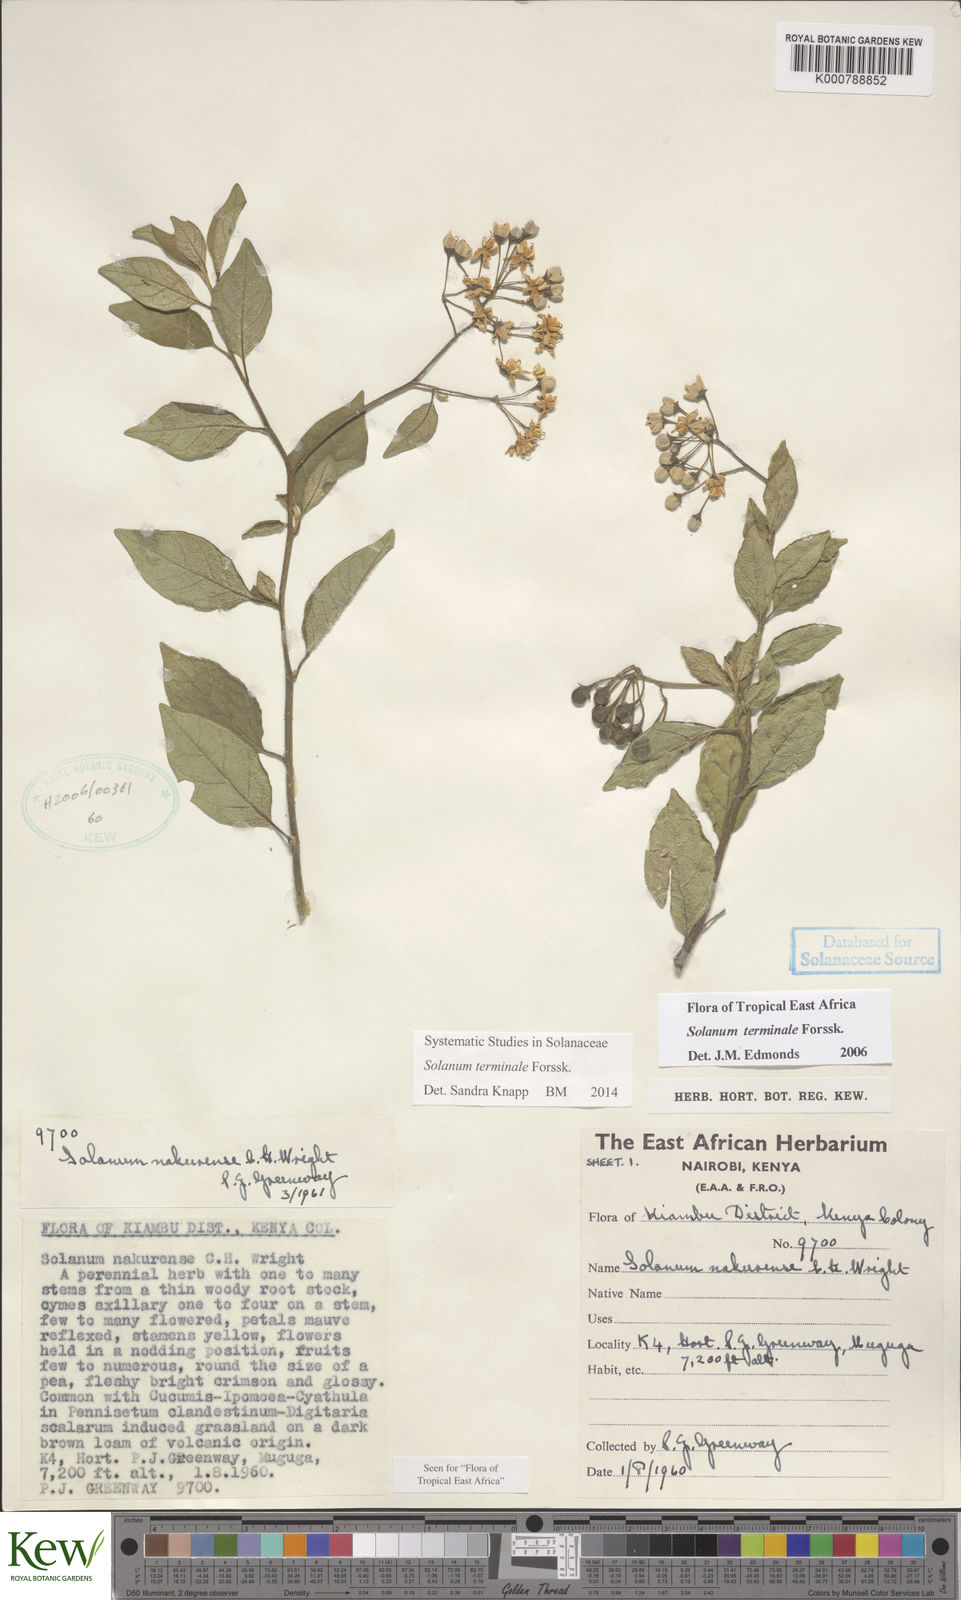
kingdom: Plantae
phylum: Tracheophyta
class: Magnoliopsida
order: Solanales
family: Solanaceae
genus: Solanum
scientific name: Solanum terminale
